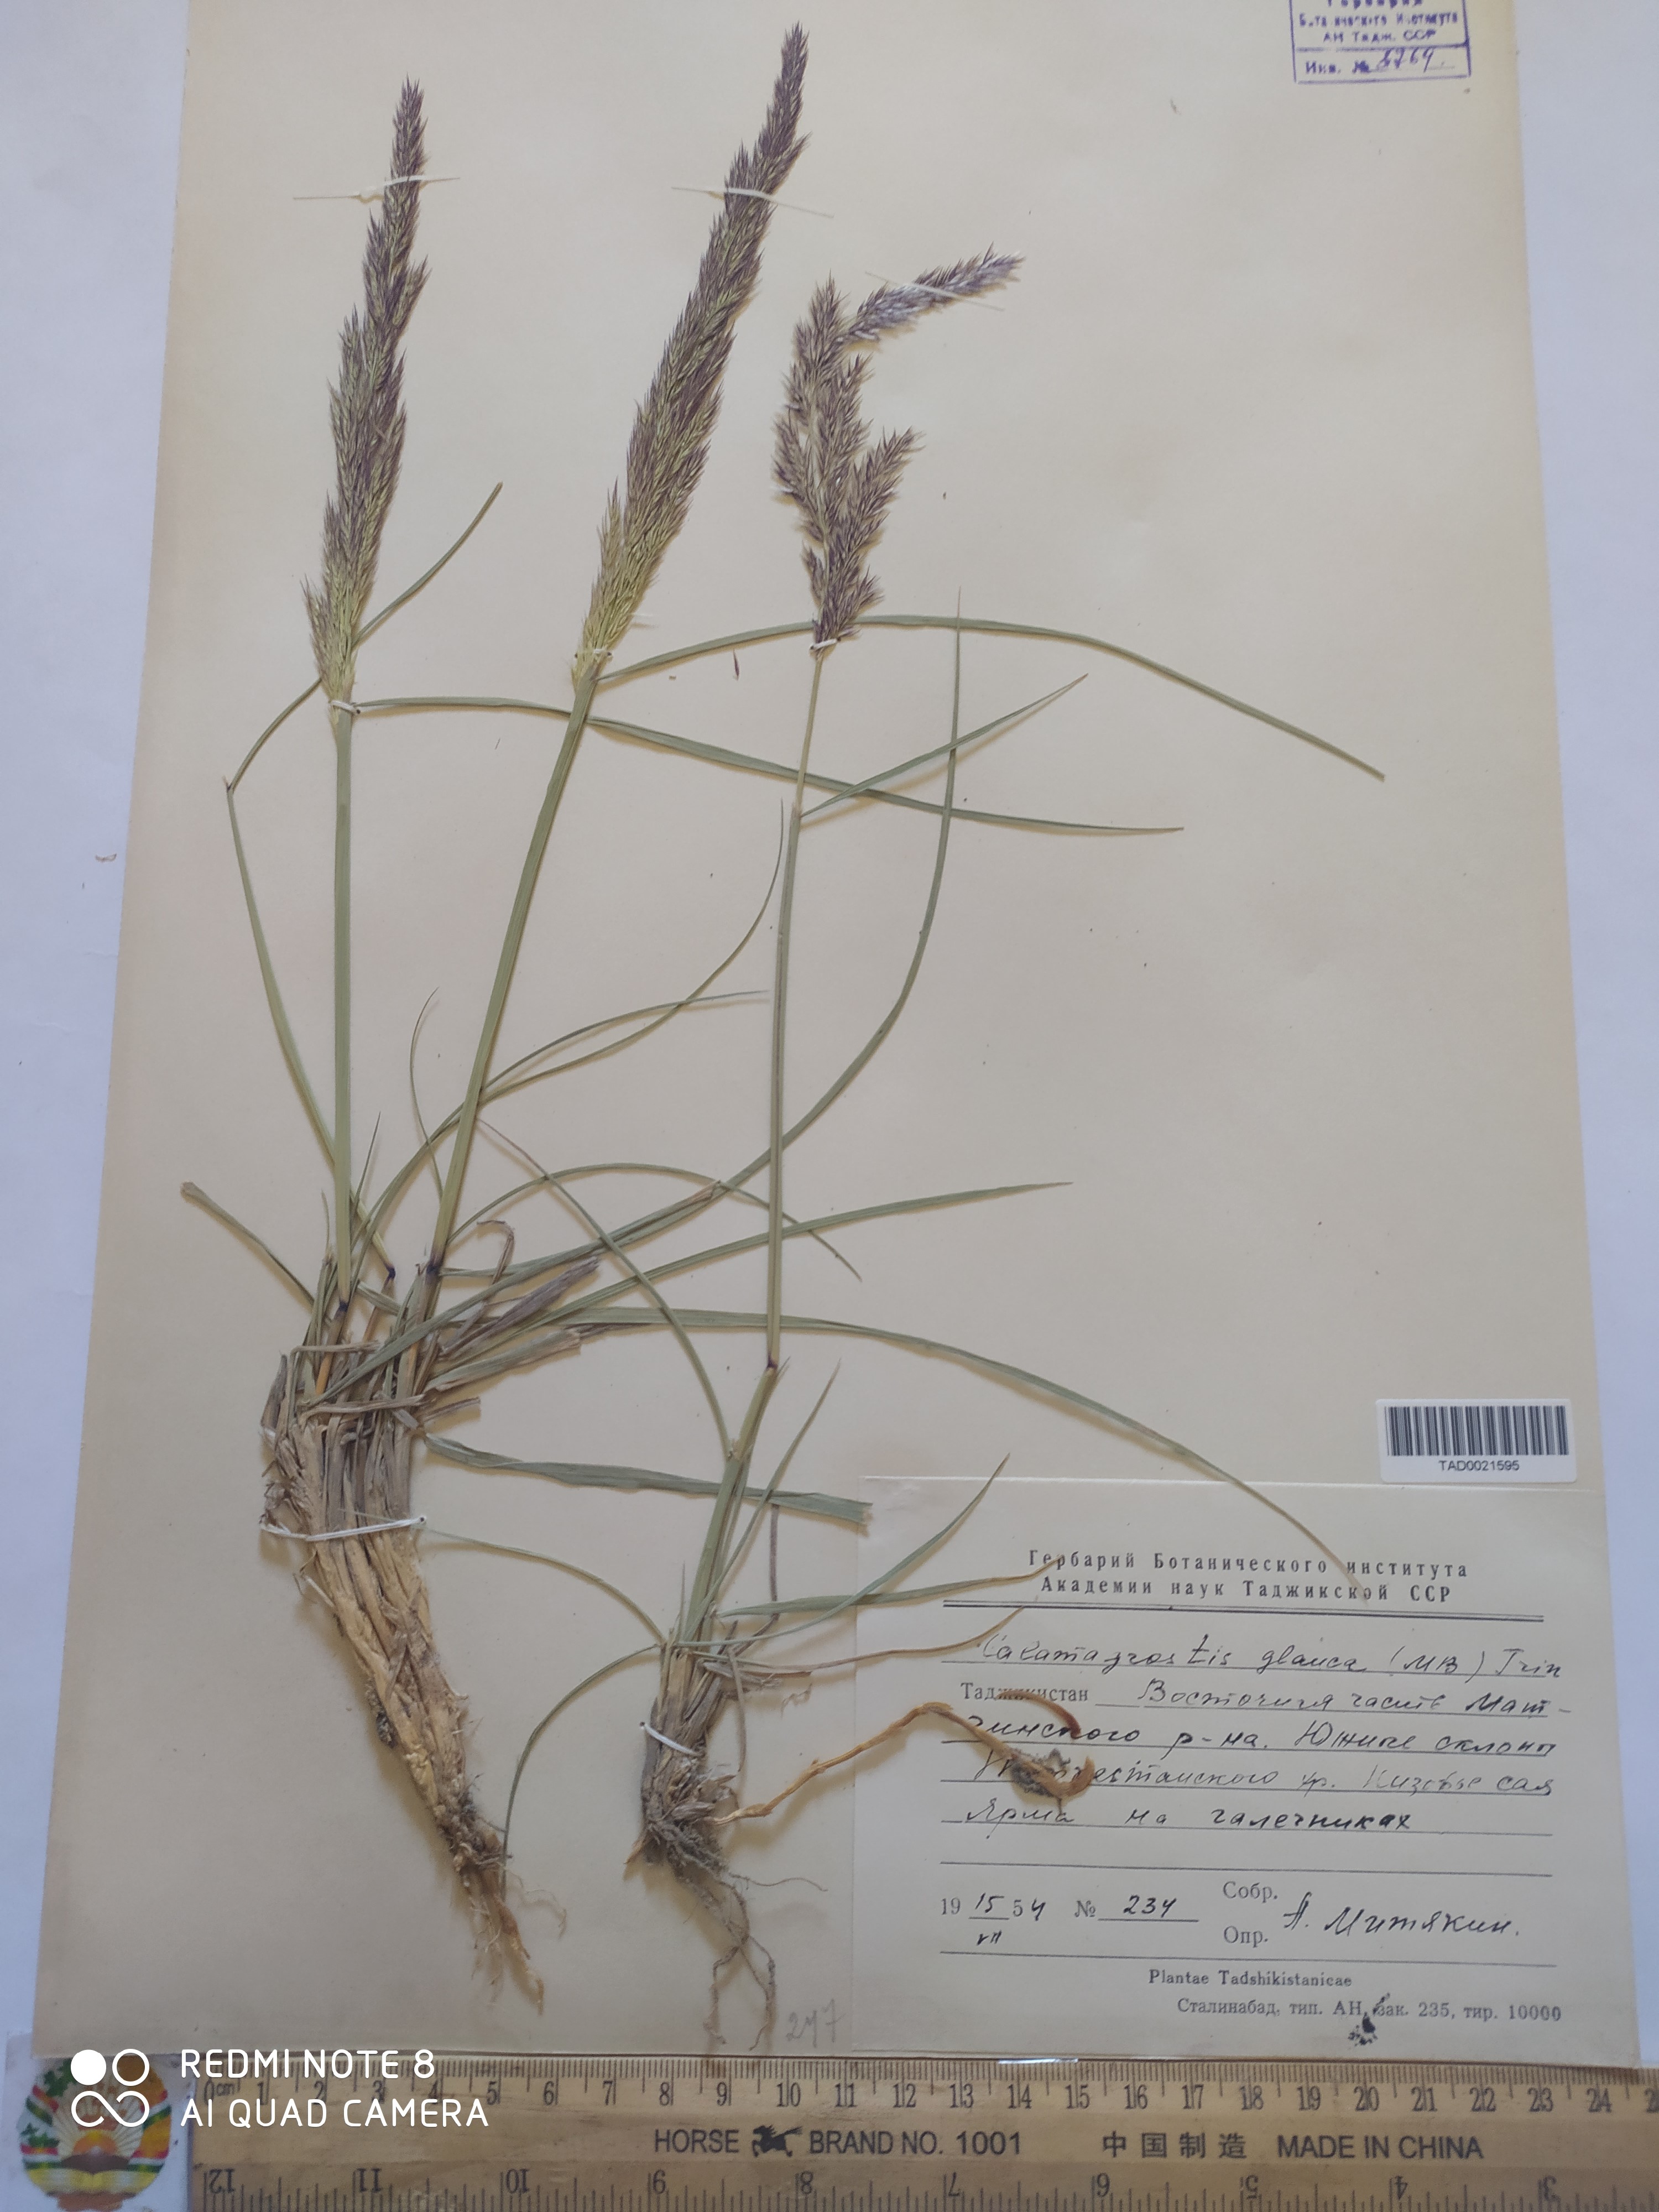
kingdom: Plantae
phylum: Tracheophyta
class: Liliopsida
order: Poales
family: Poaceae
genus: Calamagrostis
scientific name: Calamagrostis pseudophragmites
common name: Coastal small-reed
